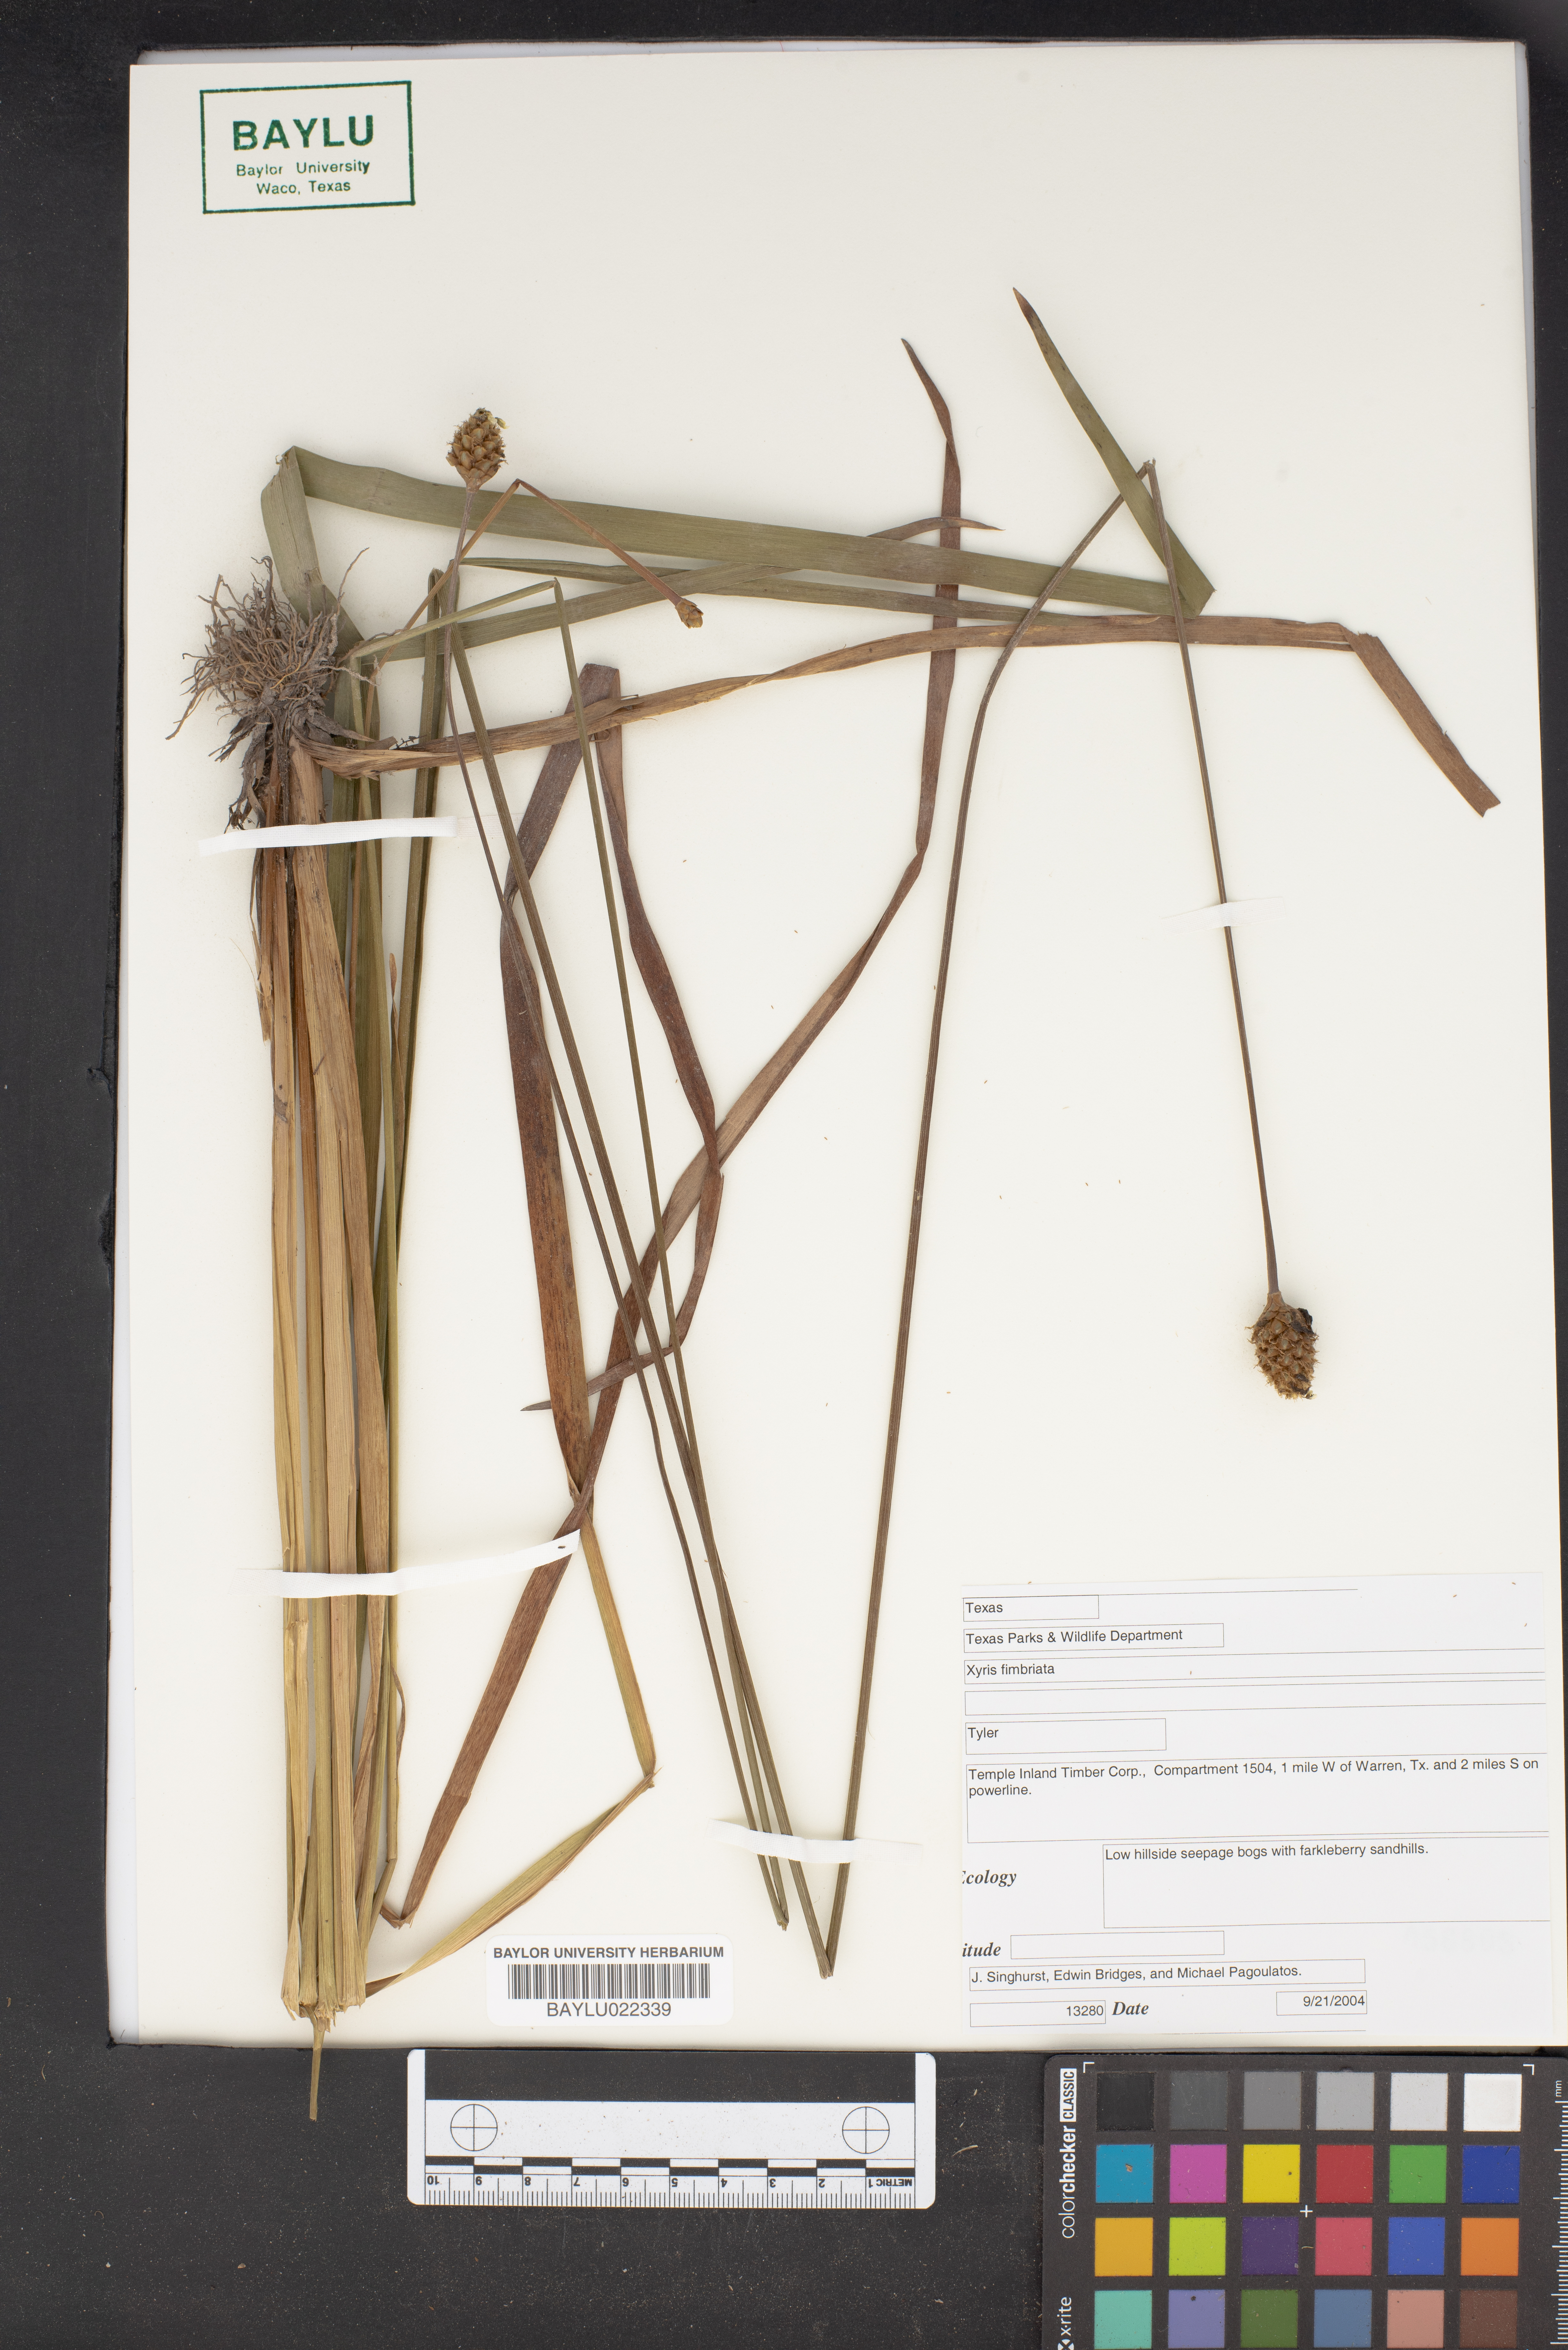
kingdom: Plantae
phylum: Tracheophyta
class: Liliopsida
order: Poales
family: Xyridaceae
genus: Xyris
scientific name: Xyris fimbriata
